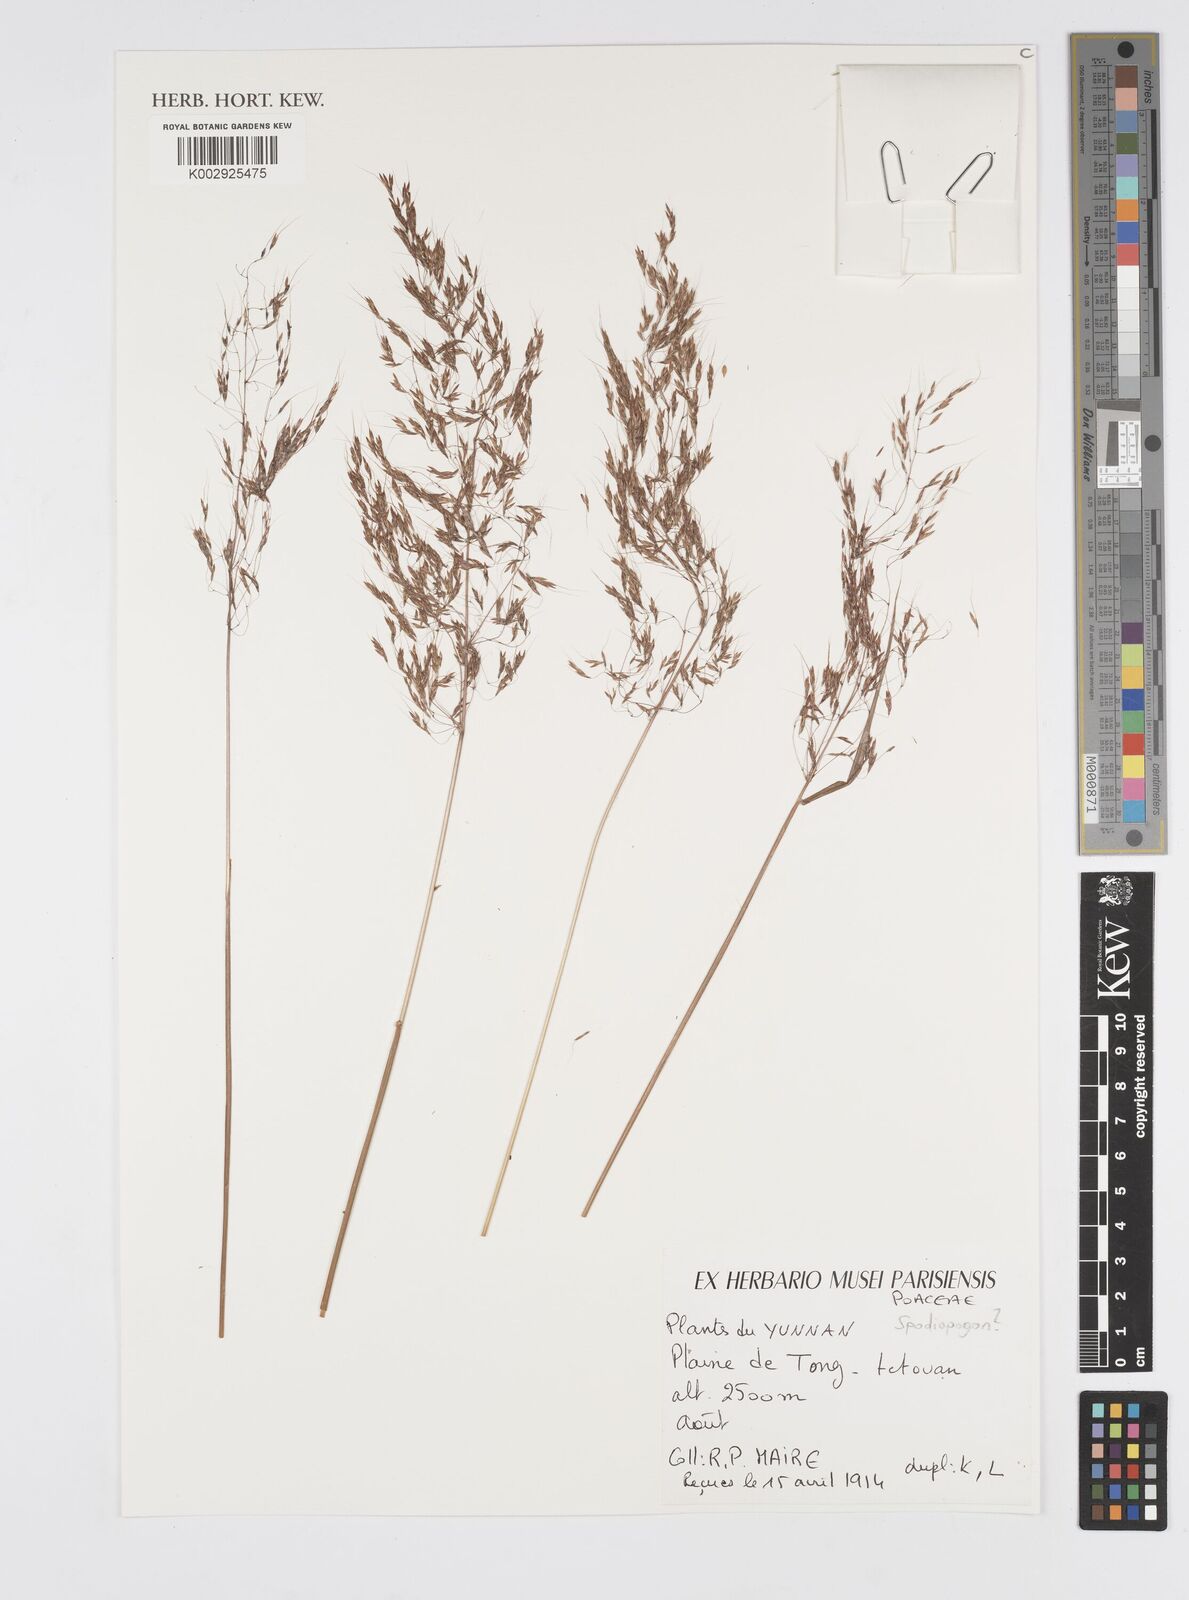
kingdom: Plantae
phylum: Tracheophyta
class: Liliopsida
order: Poales
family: Poaceae
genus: Spodiopogon
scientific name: Spodiopogon
